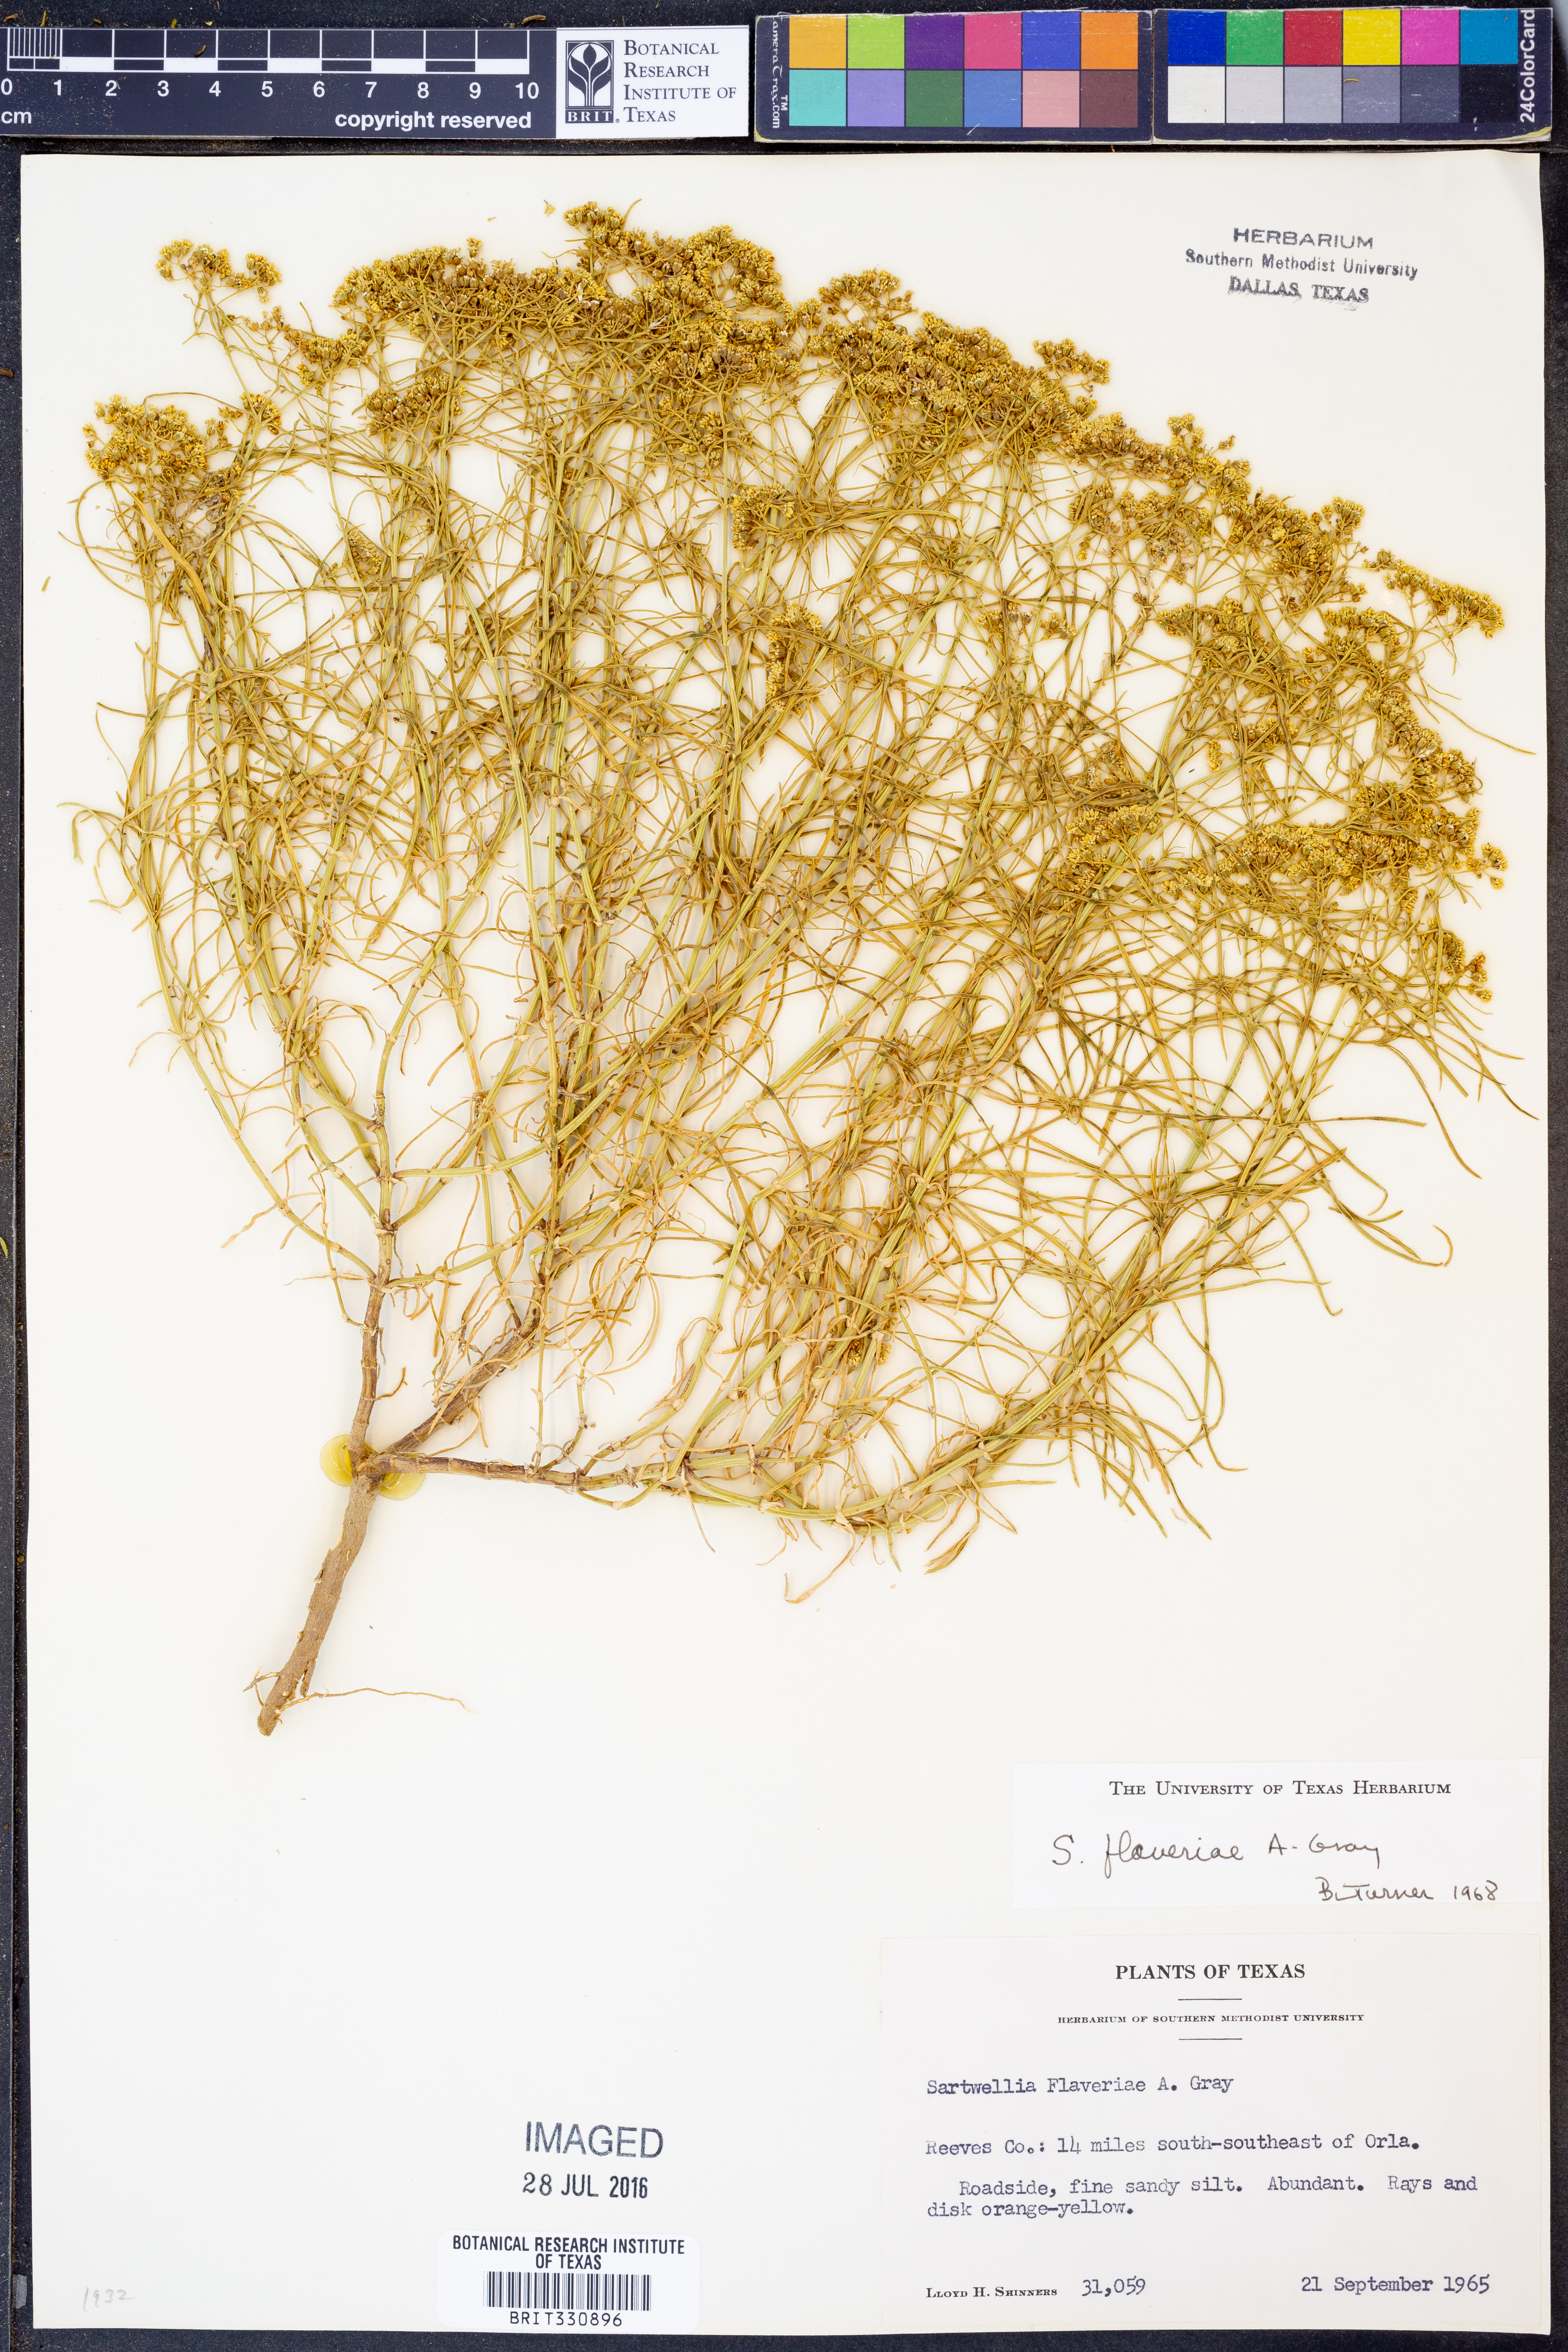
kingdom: Plantae
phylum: Tracheophyta
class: Magnoliopsida
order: Asterales
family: Asteraceae
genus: Sartwellia
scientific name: Sartwellia flaveriae
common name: Sartwellia
